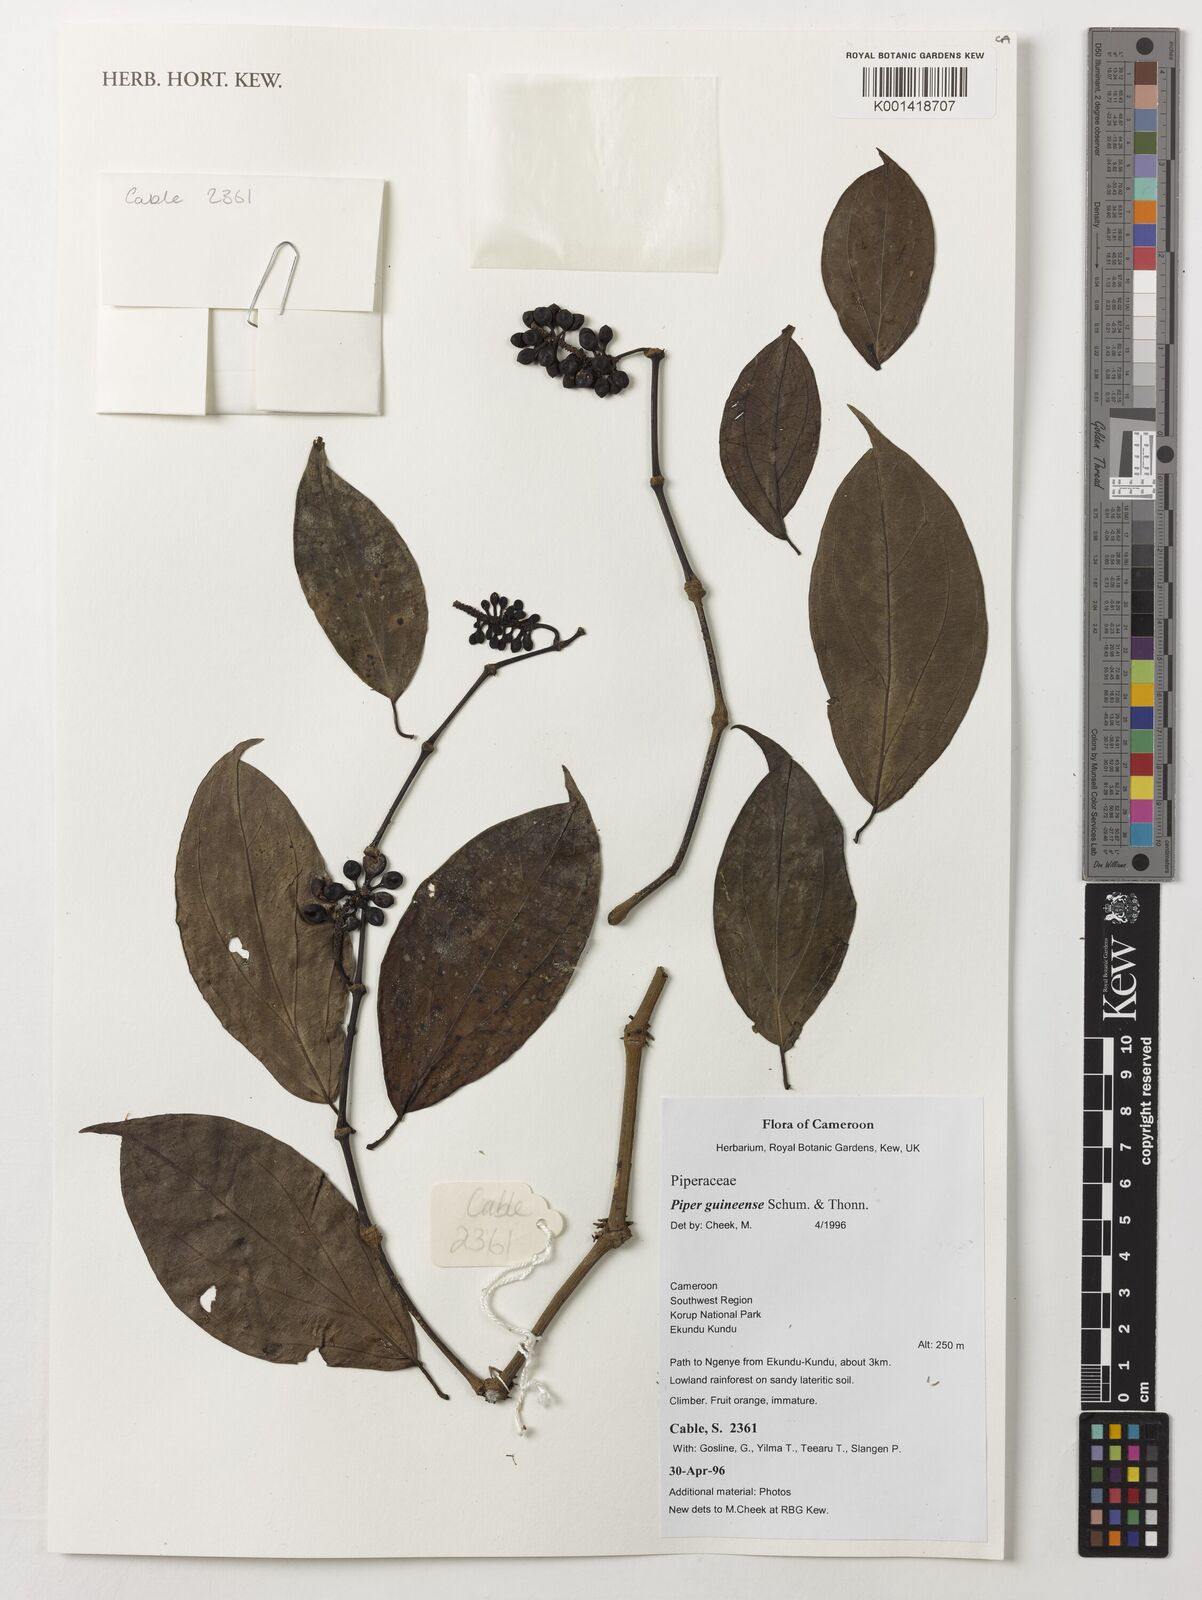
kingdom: Plantae
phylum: Tracheophyta
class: Magnoliopsida
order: Piperales
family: Piperaceae
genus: Piper
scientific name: Piper guineense
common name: Benin pepper
